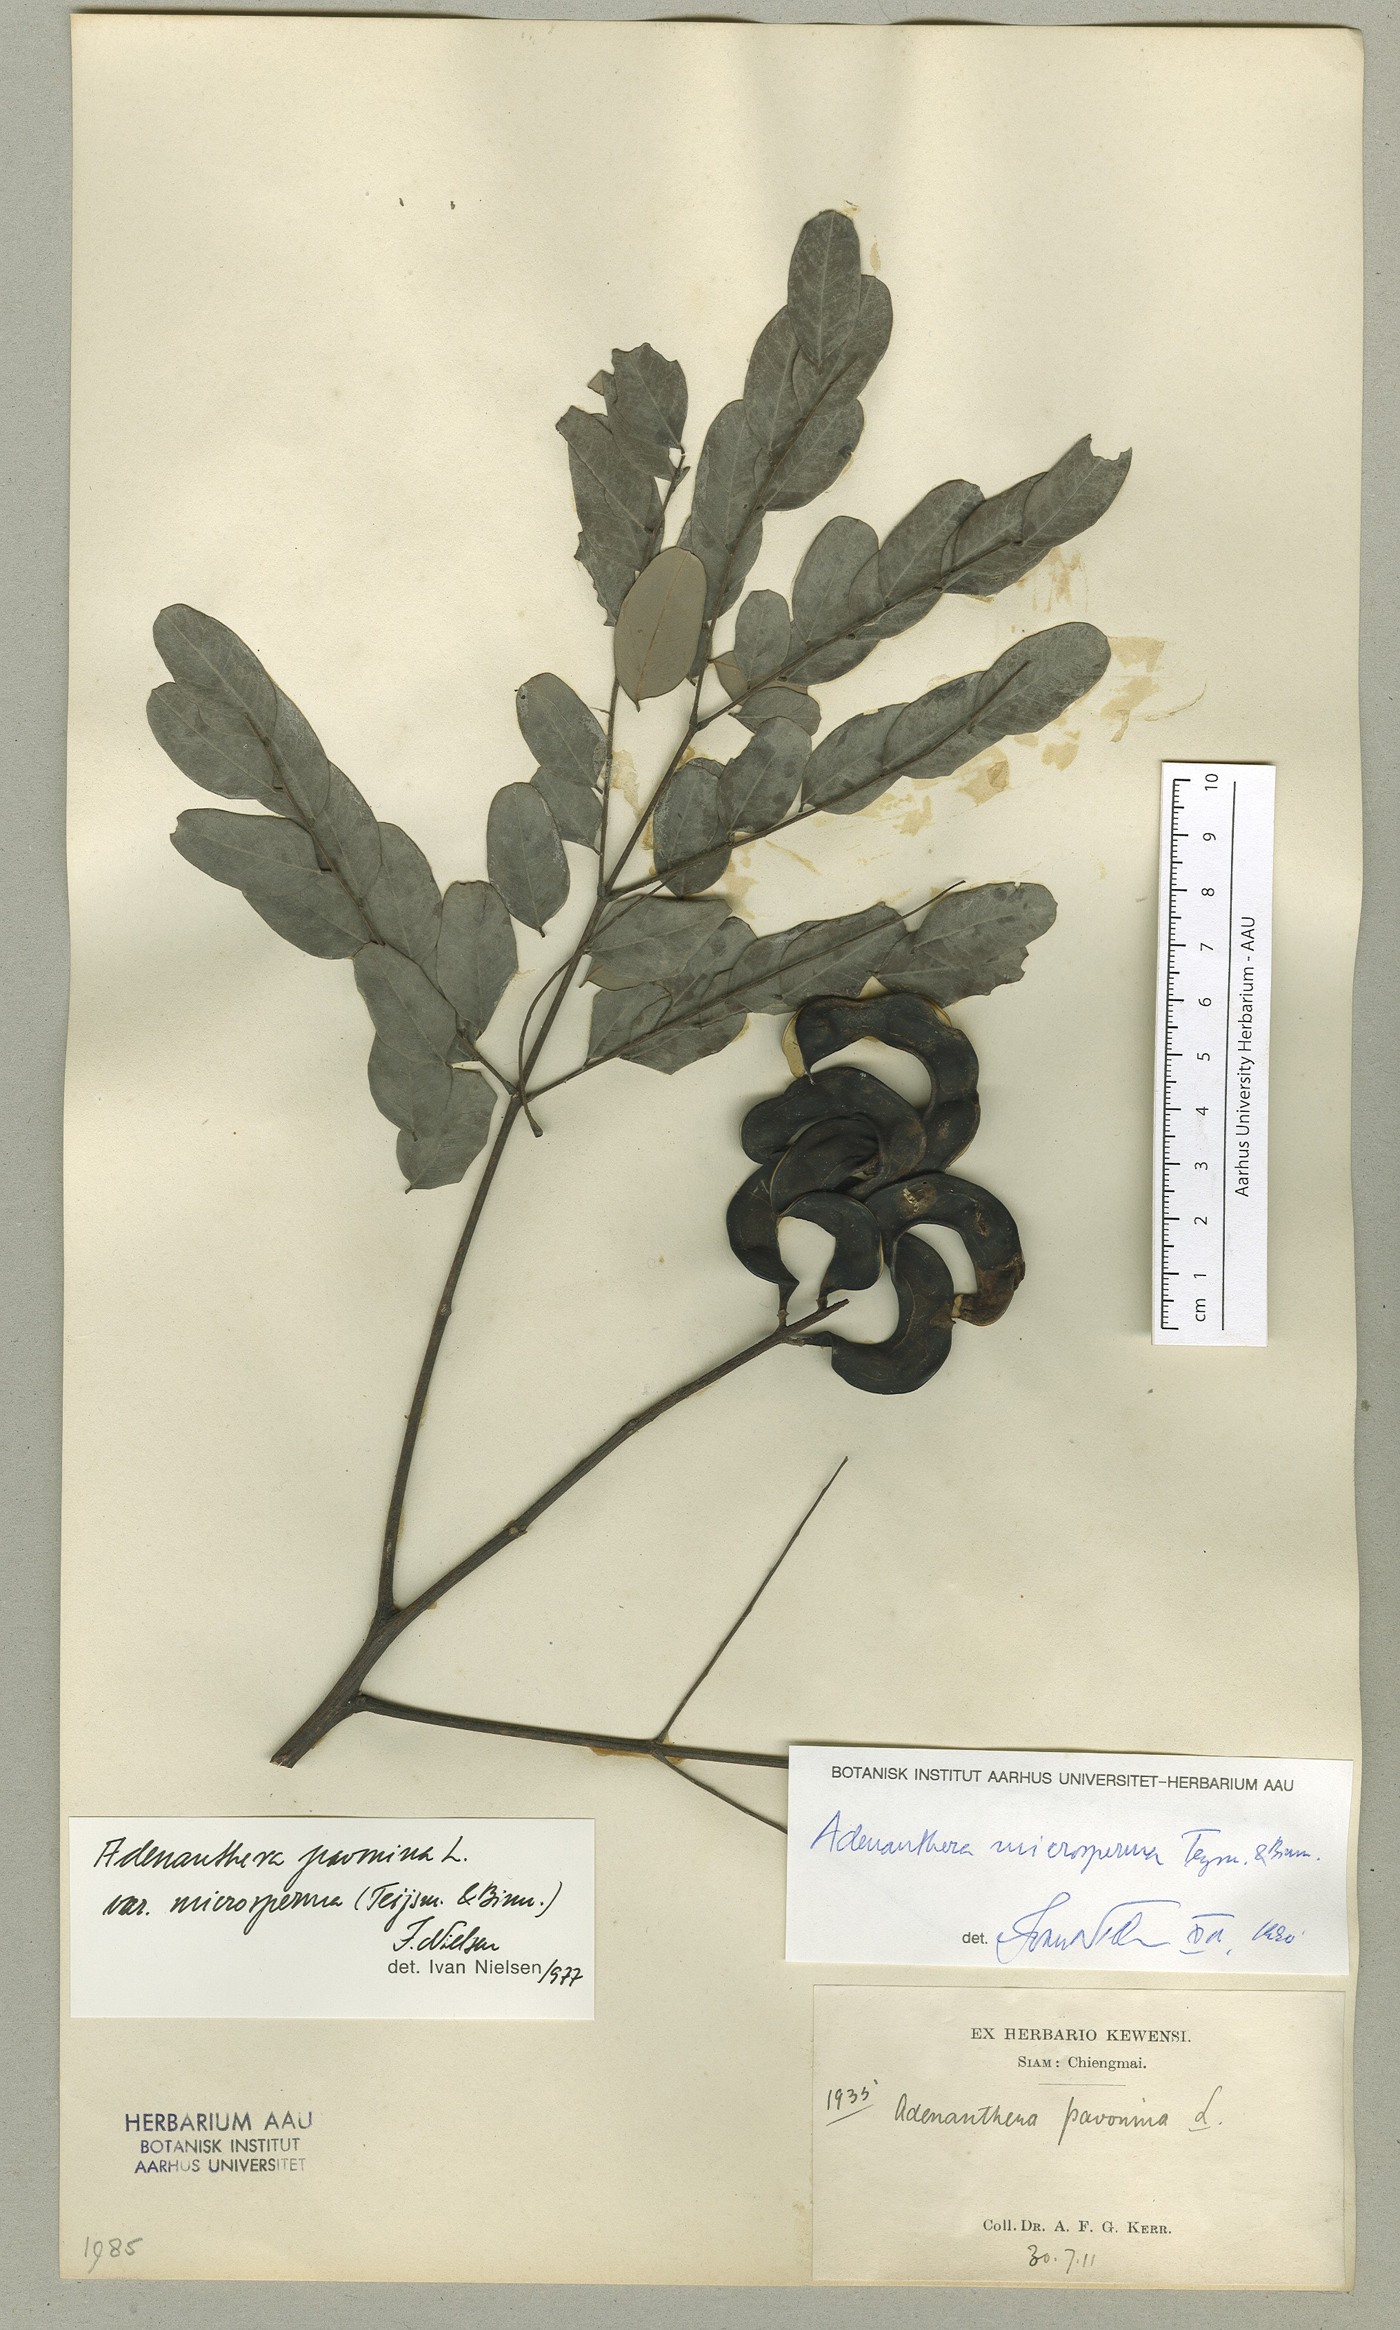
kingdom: Plantae
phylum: Tracheophyta
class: Magnoliopsida
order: Fabales
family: Fabaceae
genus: Adenanthera
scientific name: Adenanthera microsperma
